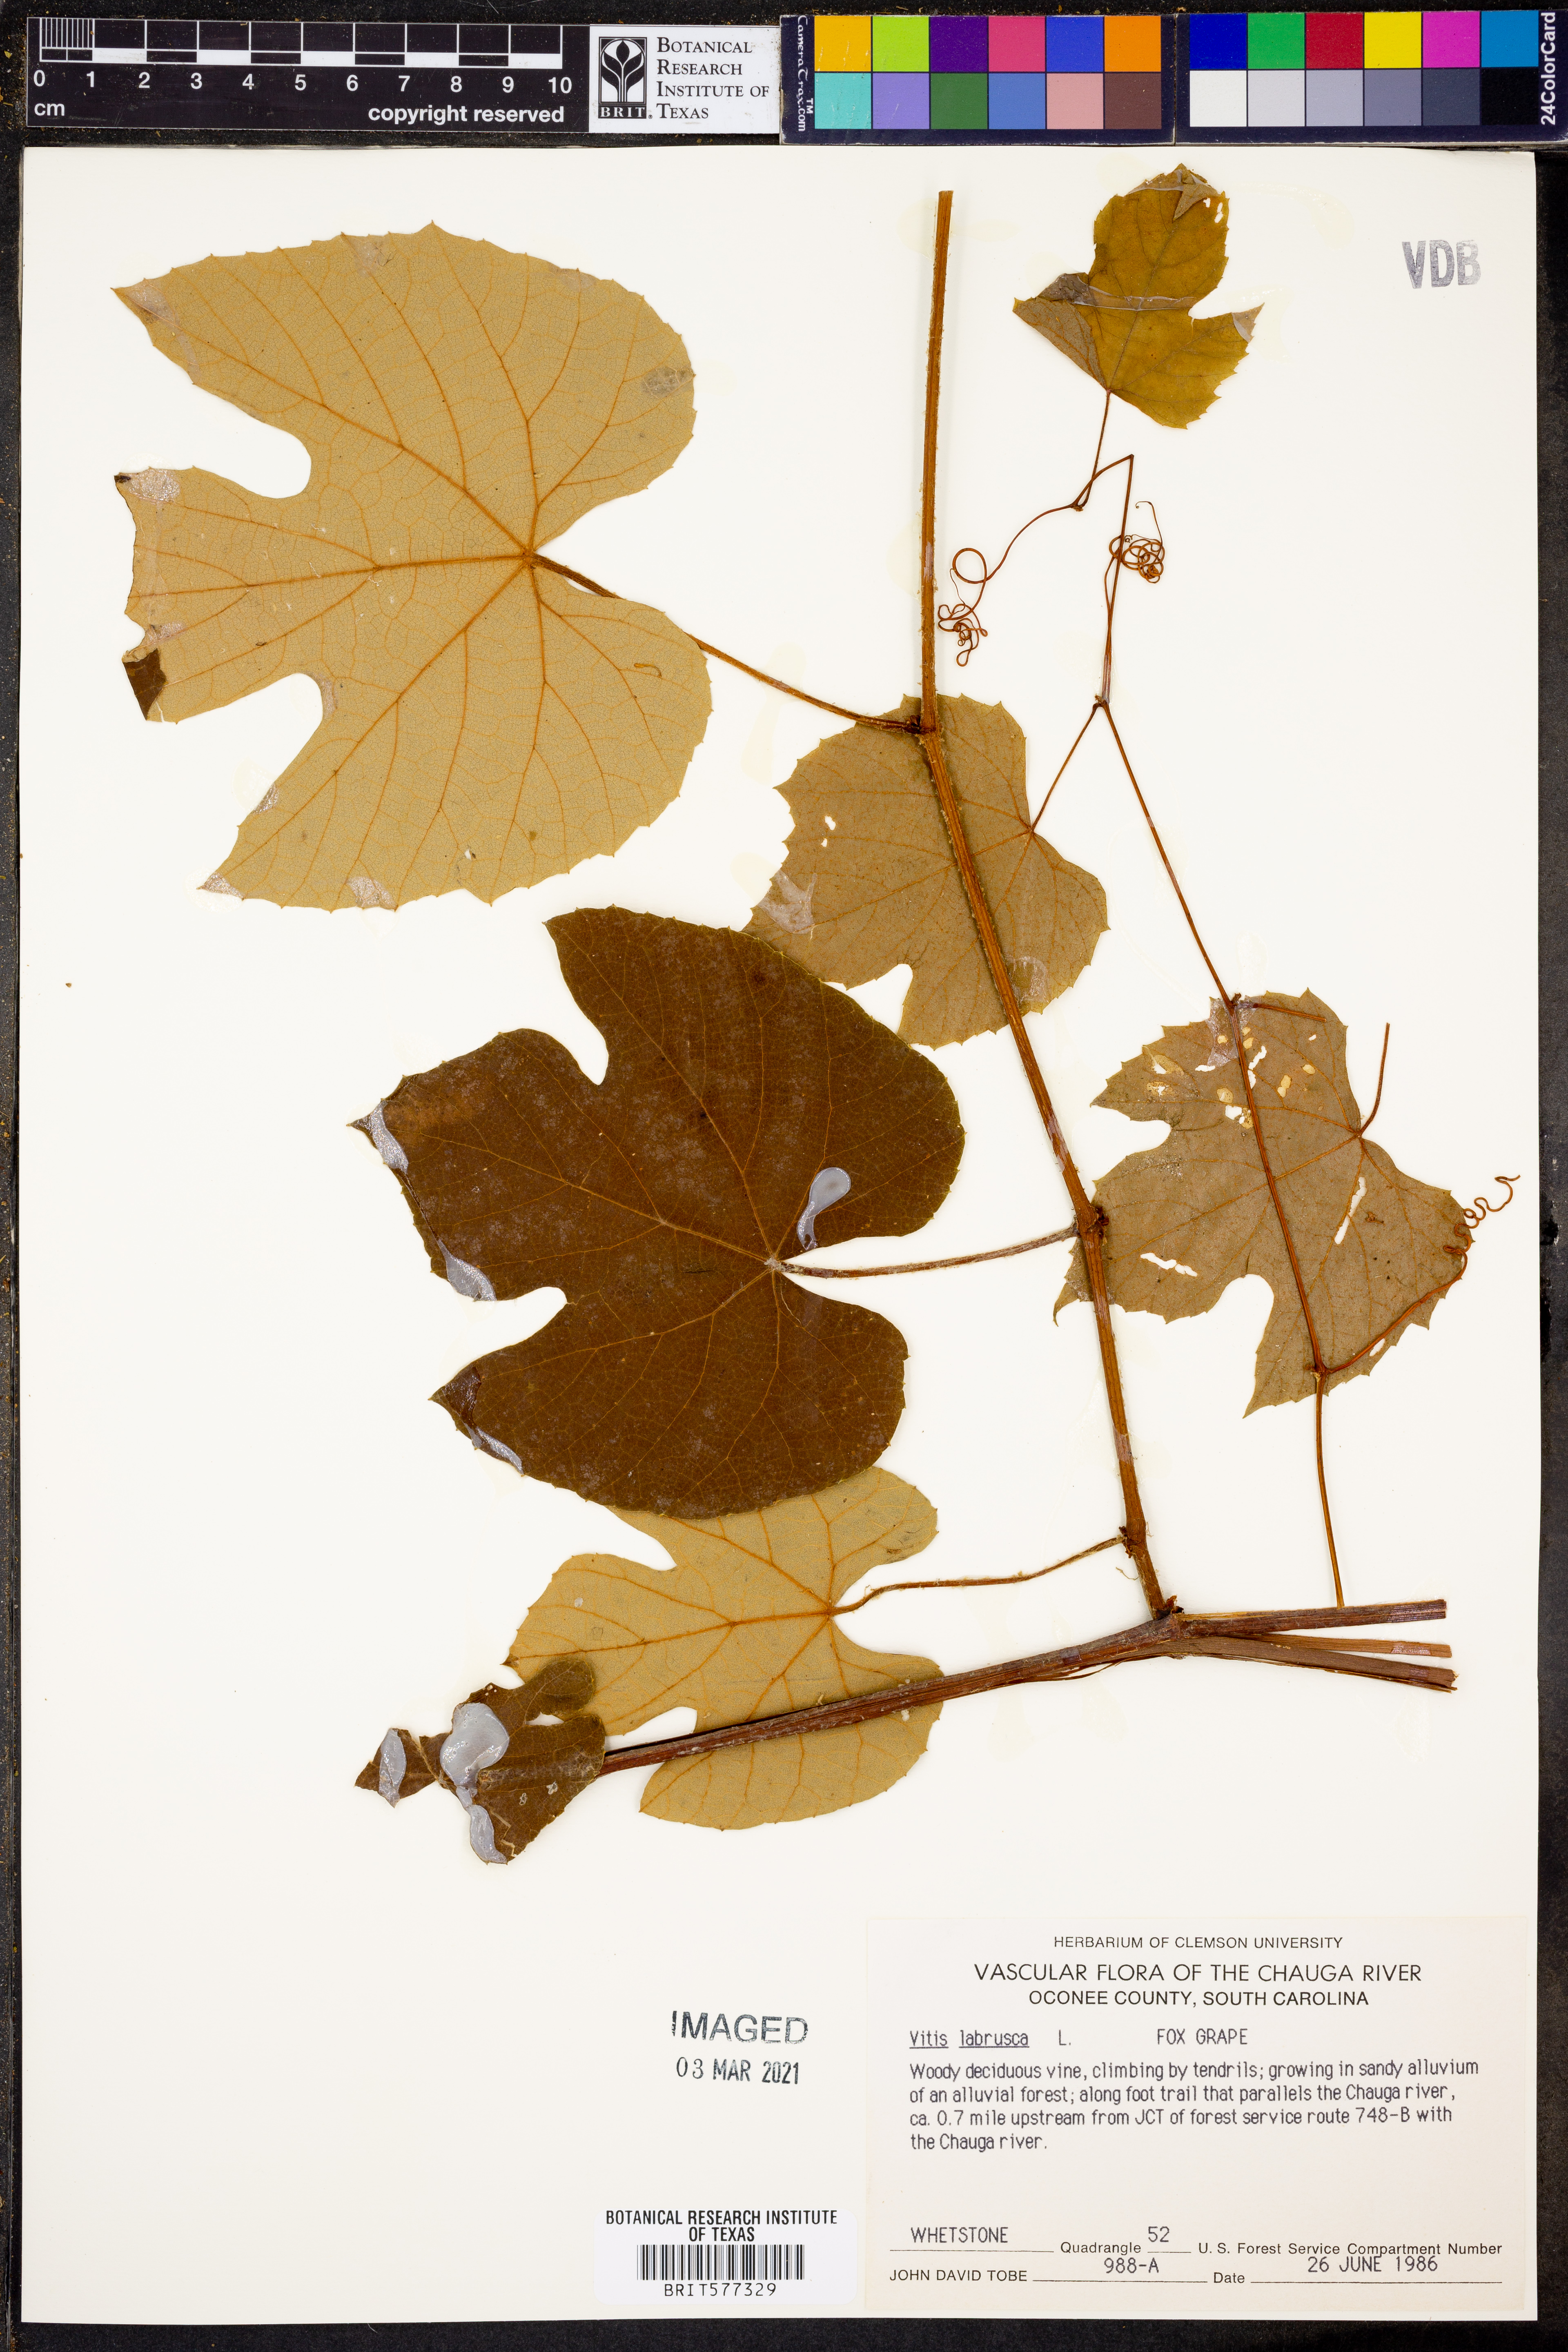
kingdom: Plantae
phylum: Tracheophyta
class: Magnoliopsida
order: Vitales
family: Vitaceae
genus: Vitis
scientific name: Vitis labrusca
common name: Concord grape
